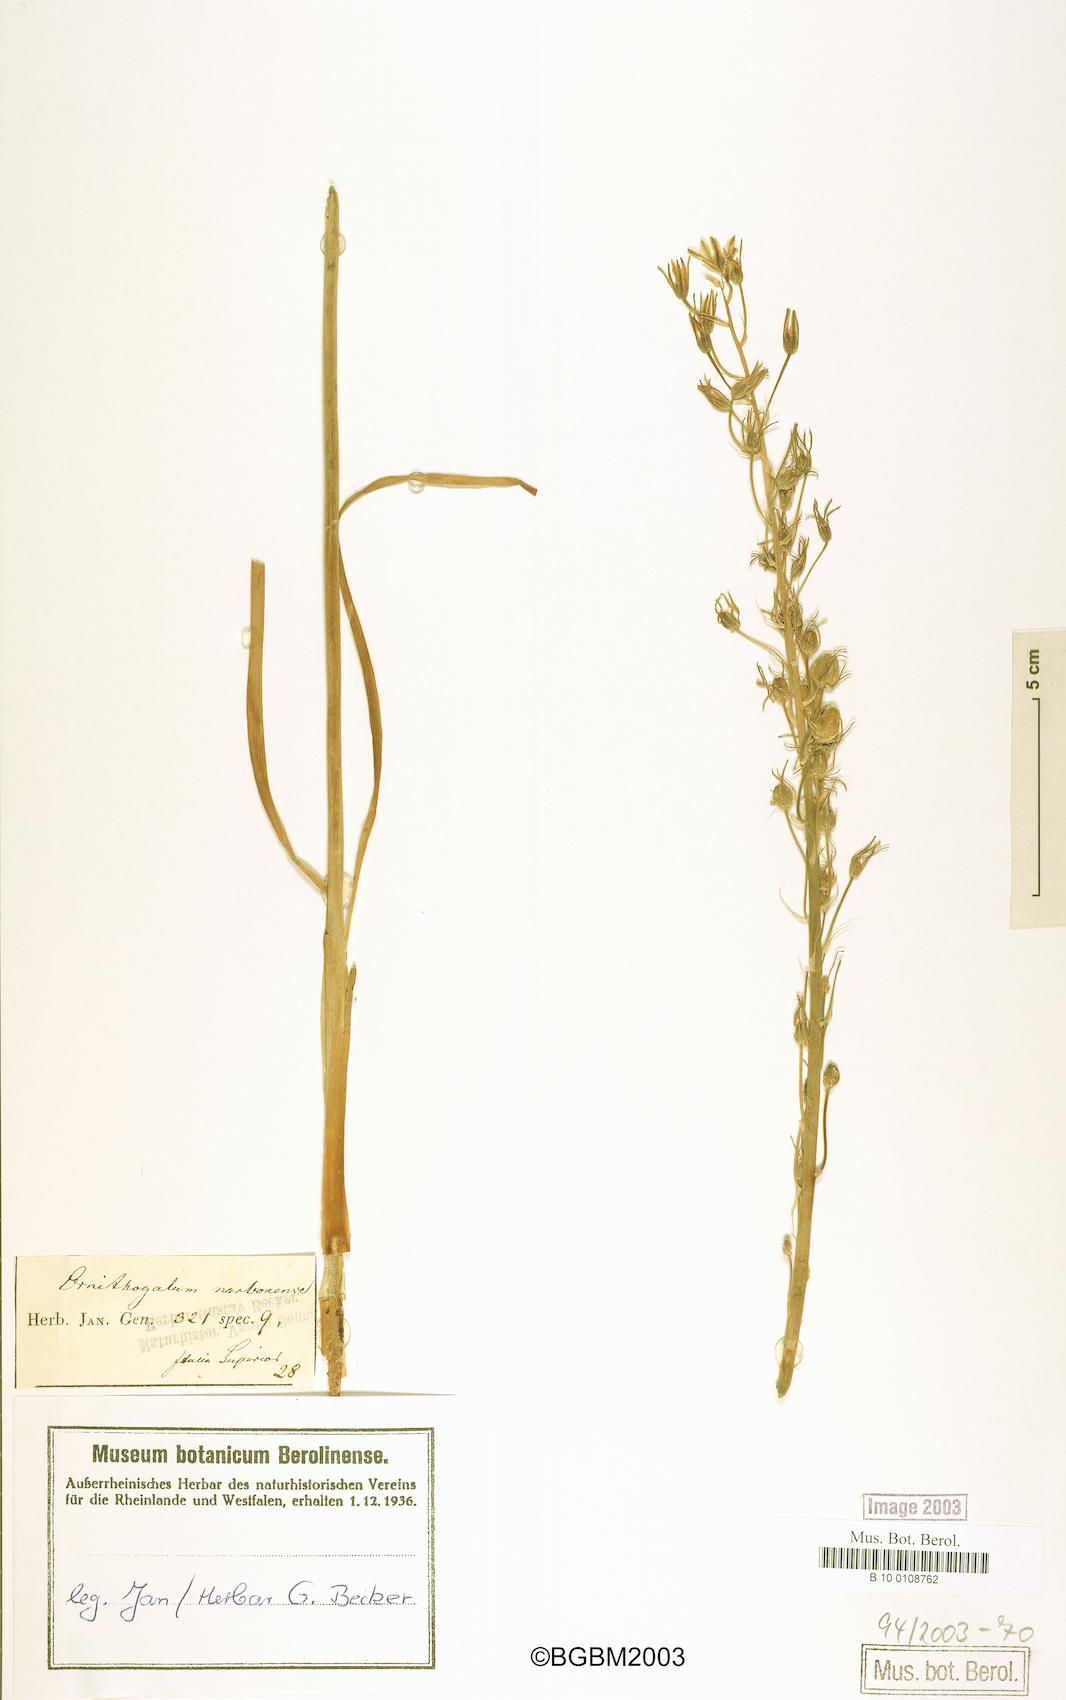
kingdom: Plantae
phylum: Tracheophyta
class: Liliopsida
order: Asparagales
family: Asparagaceae
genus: Ornithogalum
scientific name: Ornithogalum narbonense
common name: Bath-asparagus
